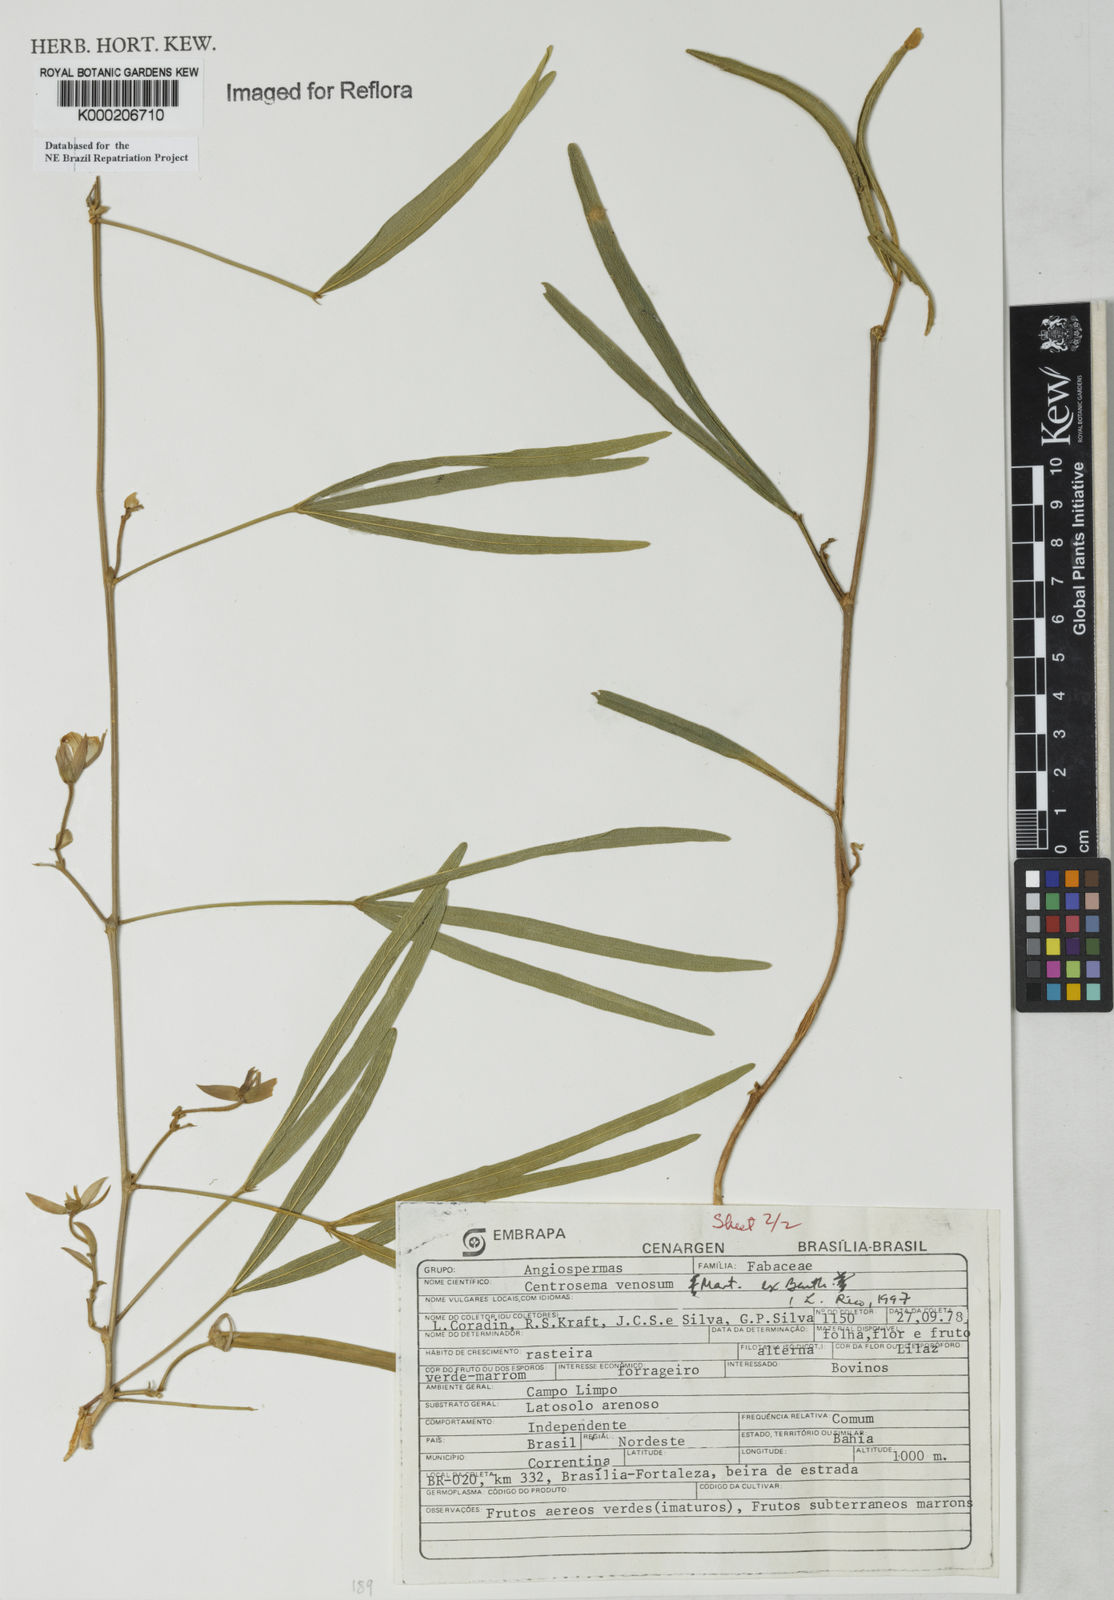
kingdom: Plantae
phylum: Tracheophyta
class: Magnoliopsida
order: Fabales
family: Fabaceae
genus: Centrosema
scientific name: Centrosema venosum
